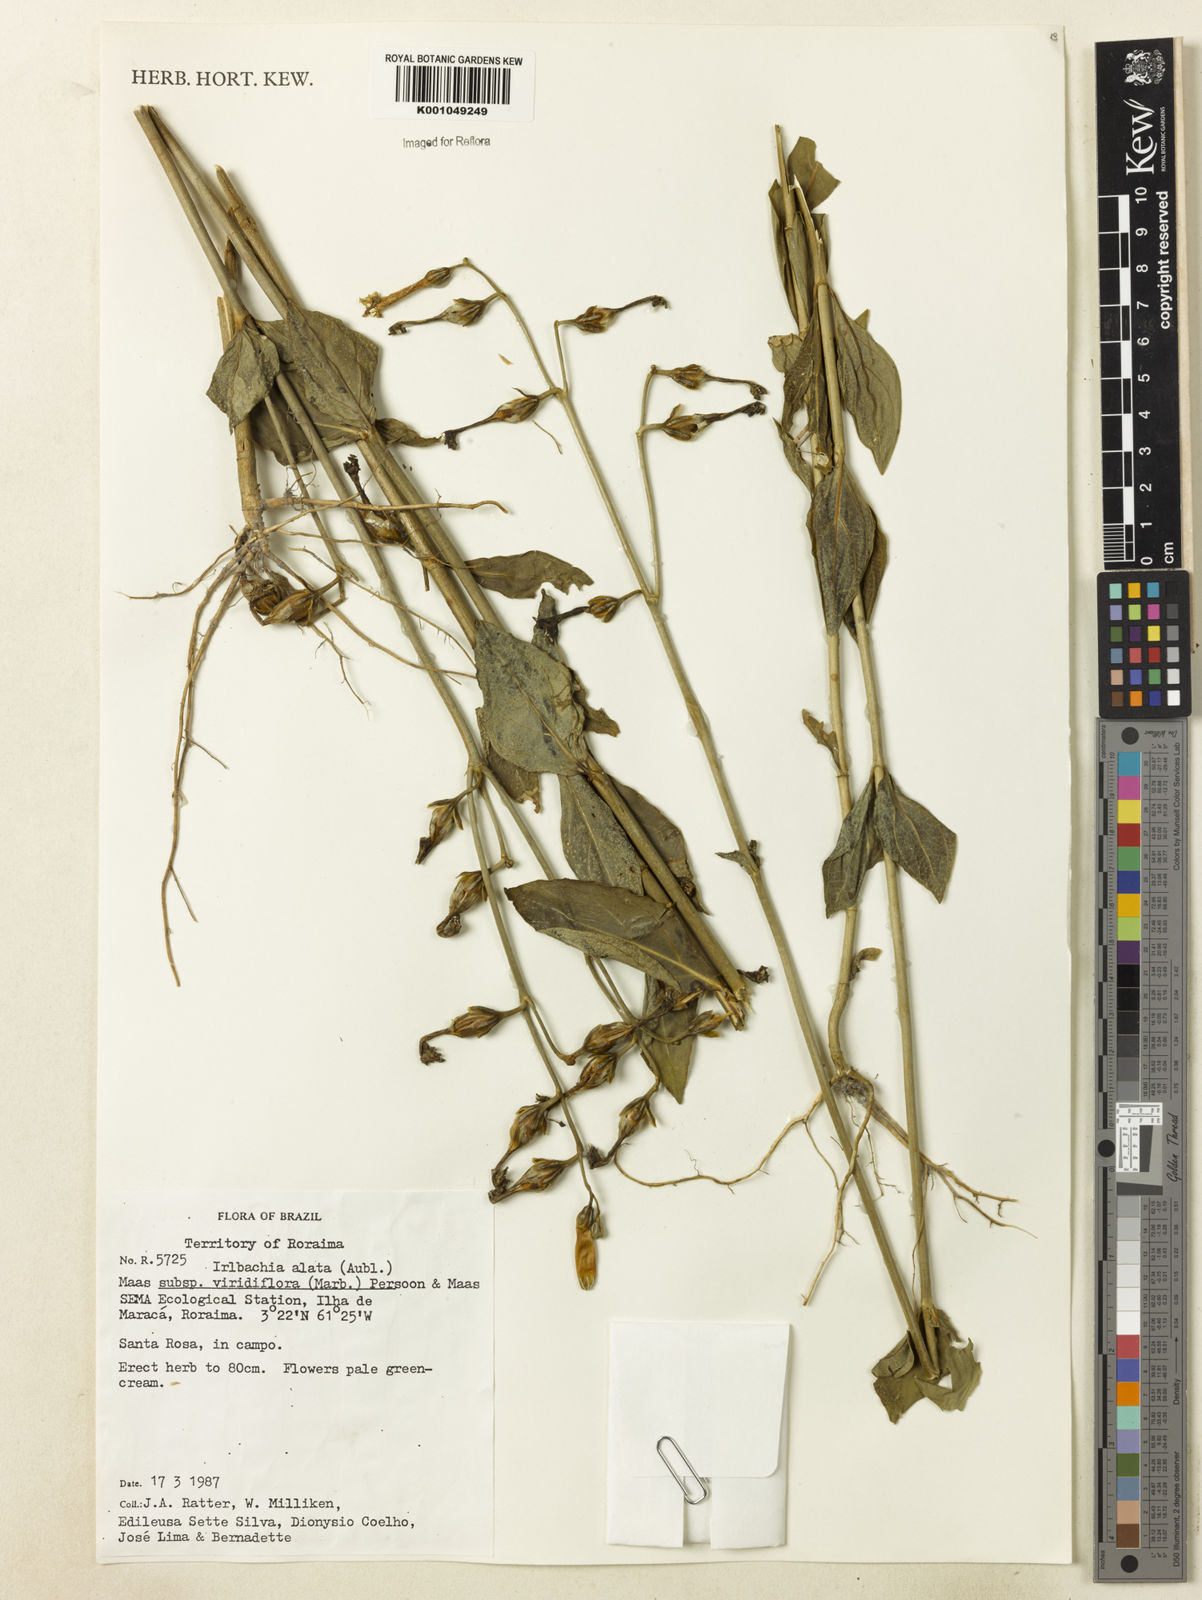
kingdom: Plantae
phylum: Tracheophyta
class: Magnoliopsida
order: Gentianales
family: Gentianaceae
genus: Chelonanthus
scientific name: Chelonanthus viridiflorus
